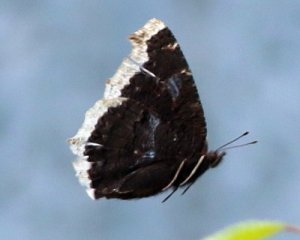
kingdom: Animalia
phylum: Arthropoda
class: Insecta
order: Lepidoptera
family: Nymphalidae
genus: Nymphalis
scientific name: Nymphalis antiopa
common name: Mourning Cloak
